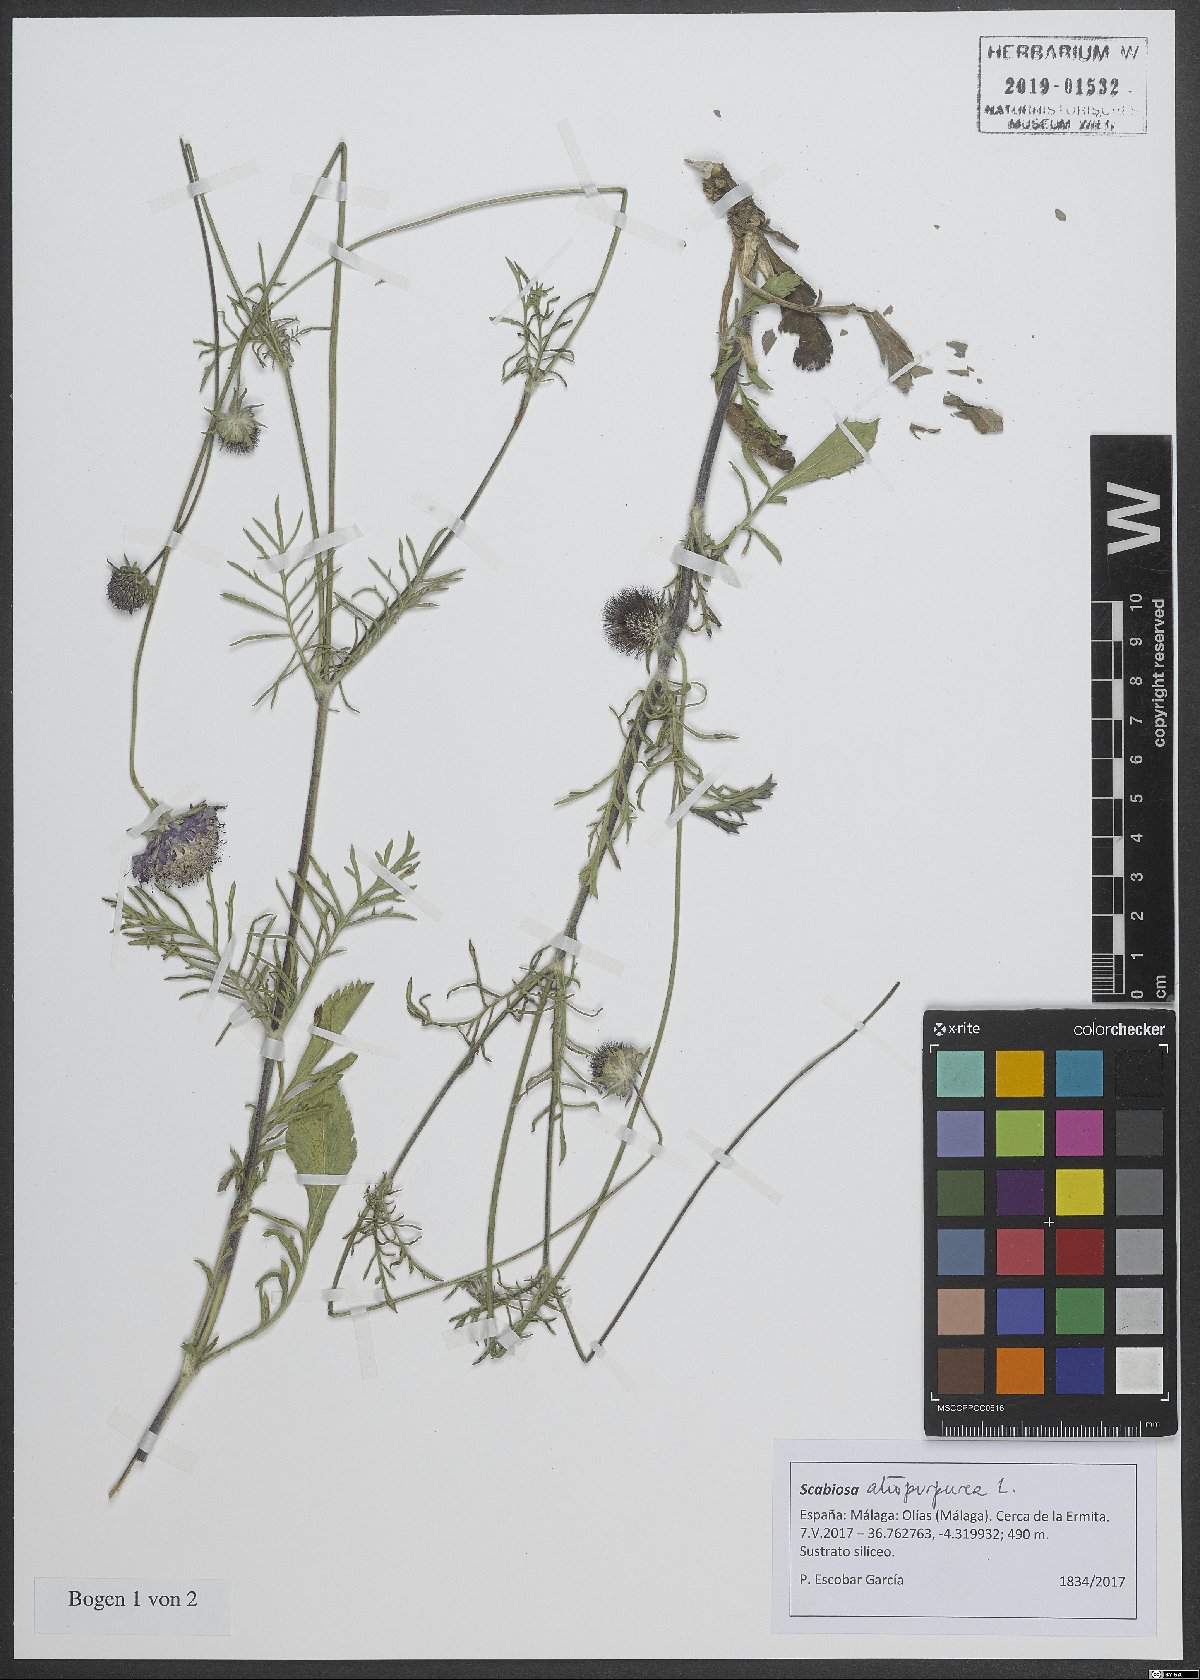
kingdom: Plantae
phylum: Tracheophyta
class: Magnoliopsida
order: Dipsacales
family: Caprifoliaceae
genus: Sixalix
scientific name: Sixalix atropurpurea
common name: Sweet scabious
